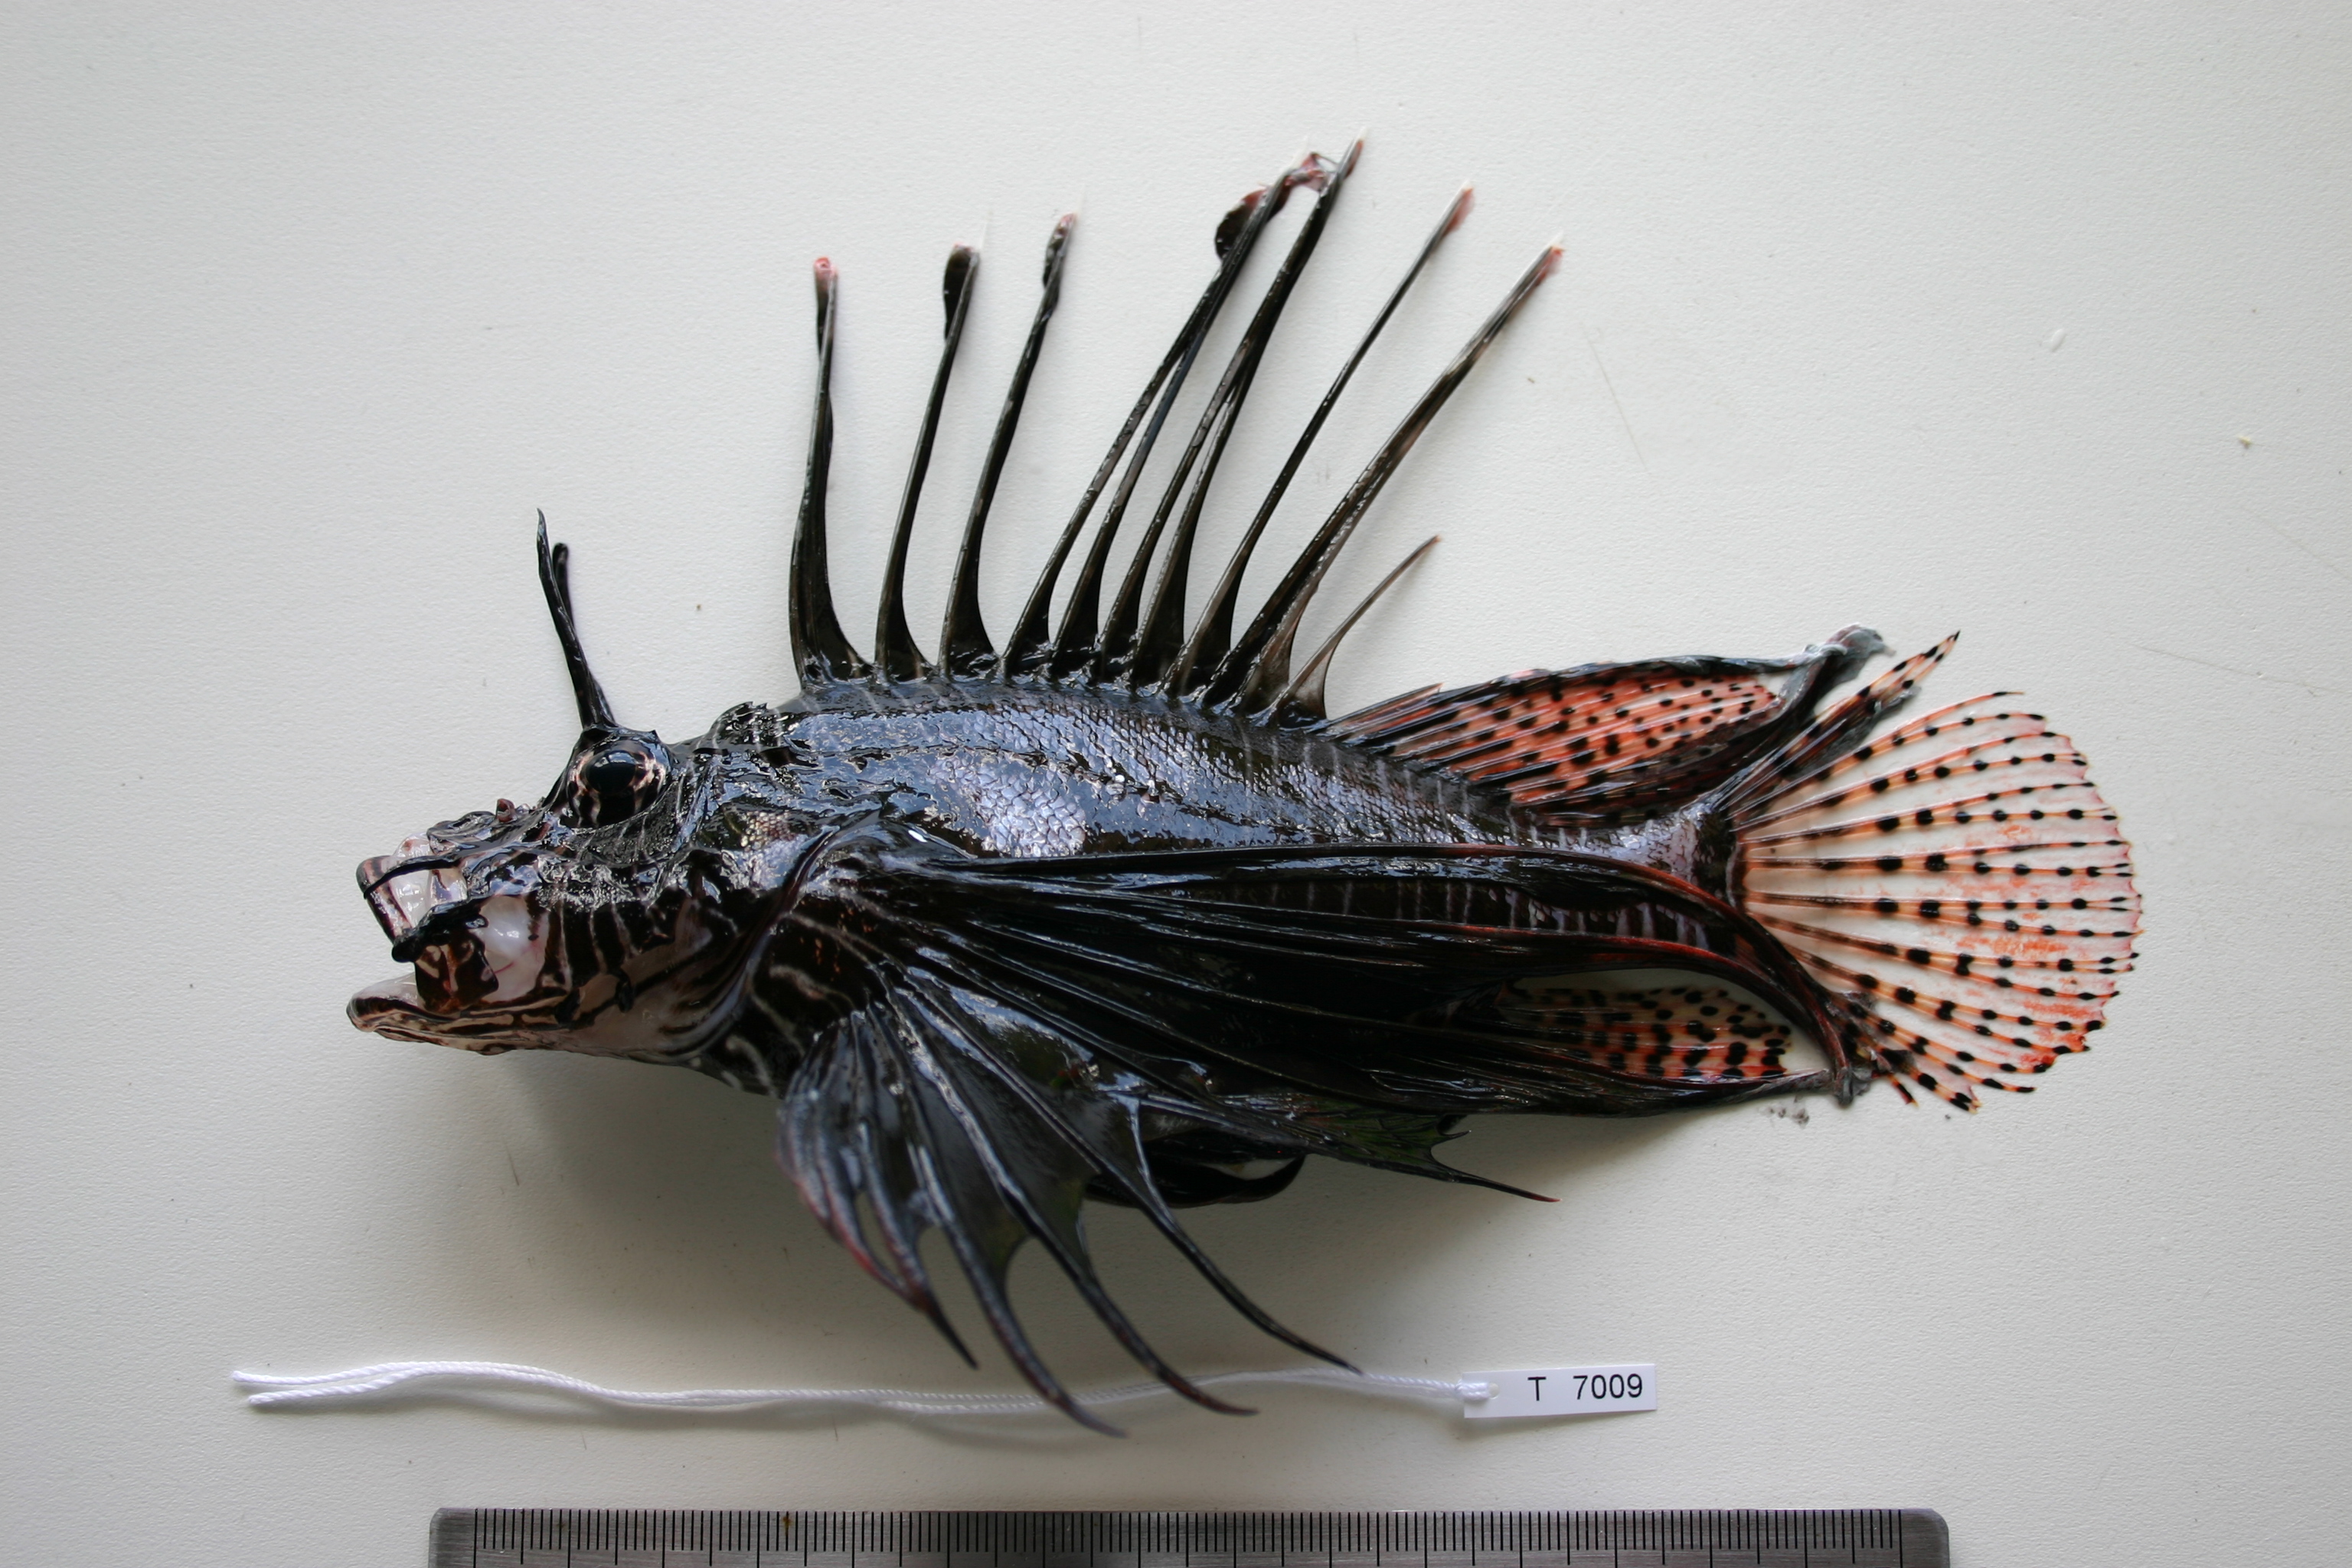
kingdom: Animalia
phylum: Chordata
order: Scorpaeniformes
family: Scorpaenidae
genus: Pterois
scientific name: Pterois miles
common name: Devil firefish
